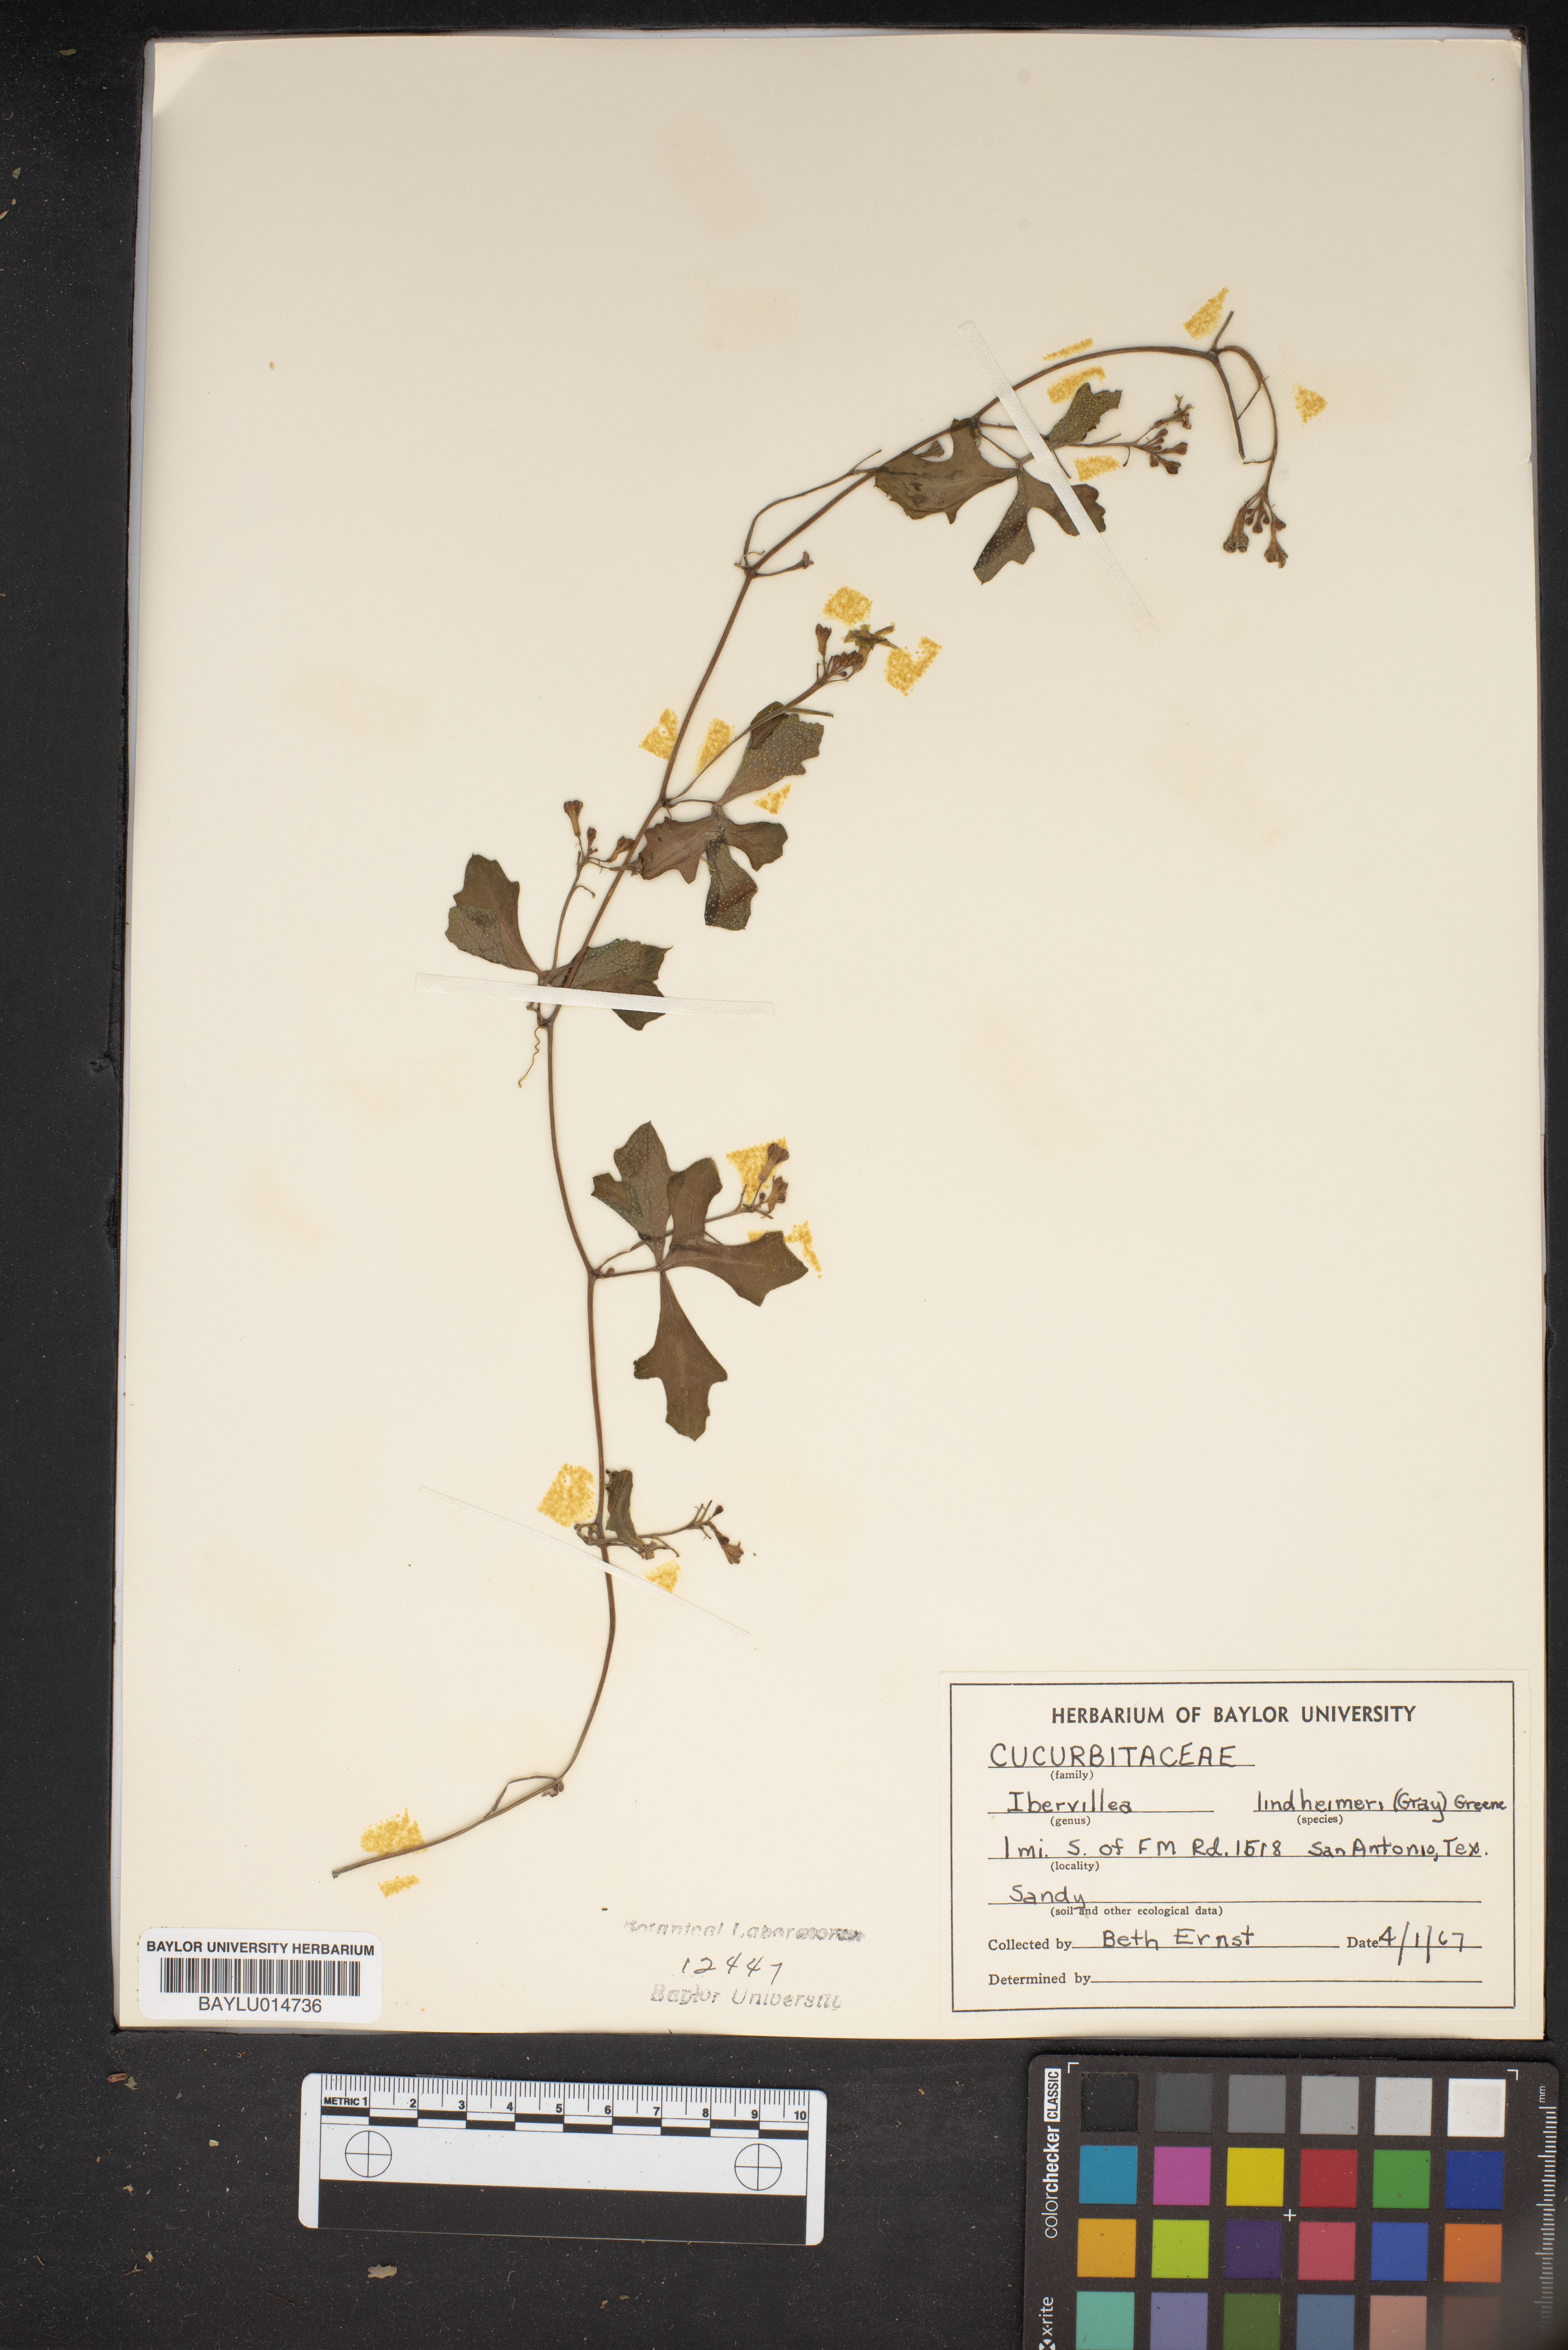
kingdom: Plantae
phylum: Tracheophyta
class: Magnoliopsida
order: Cucurbitales
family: Cucurbitaceae
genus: Ibervillea
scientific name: Ibervillea lindheimeri
